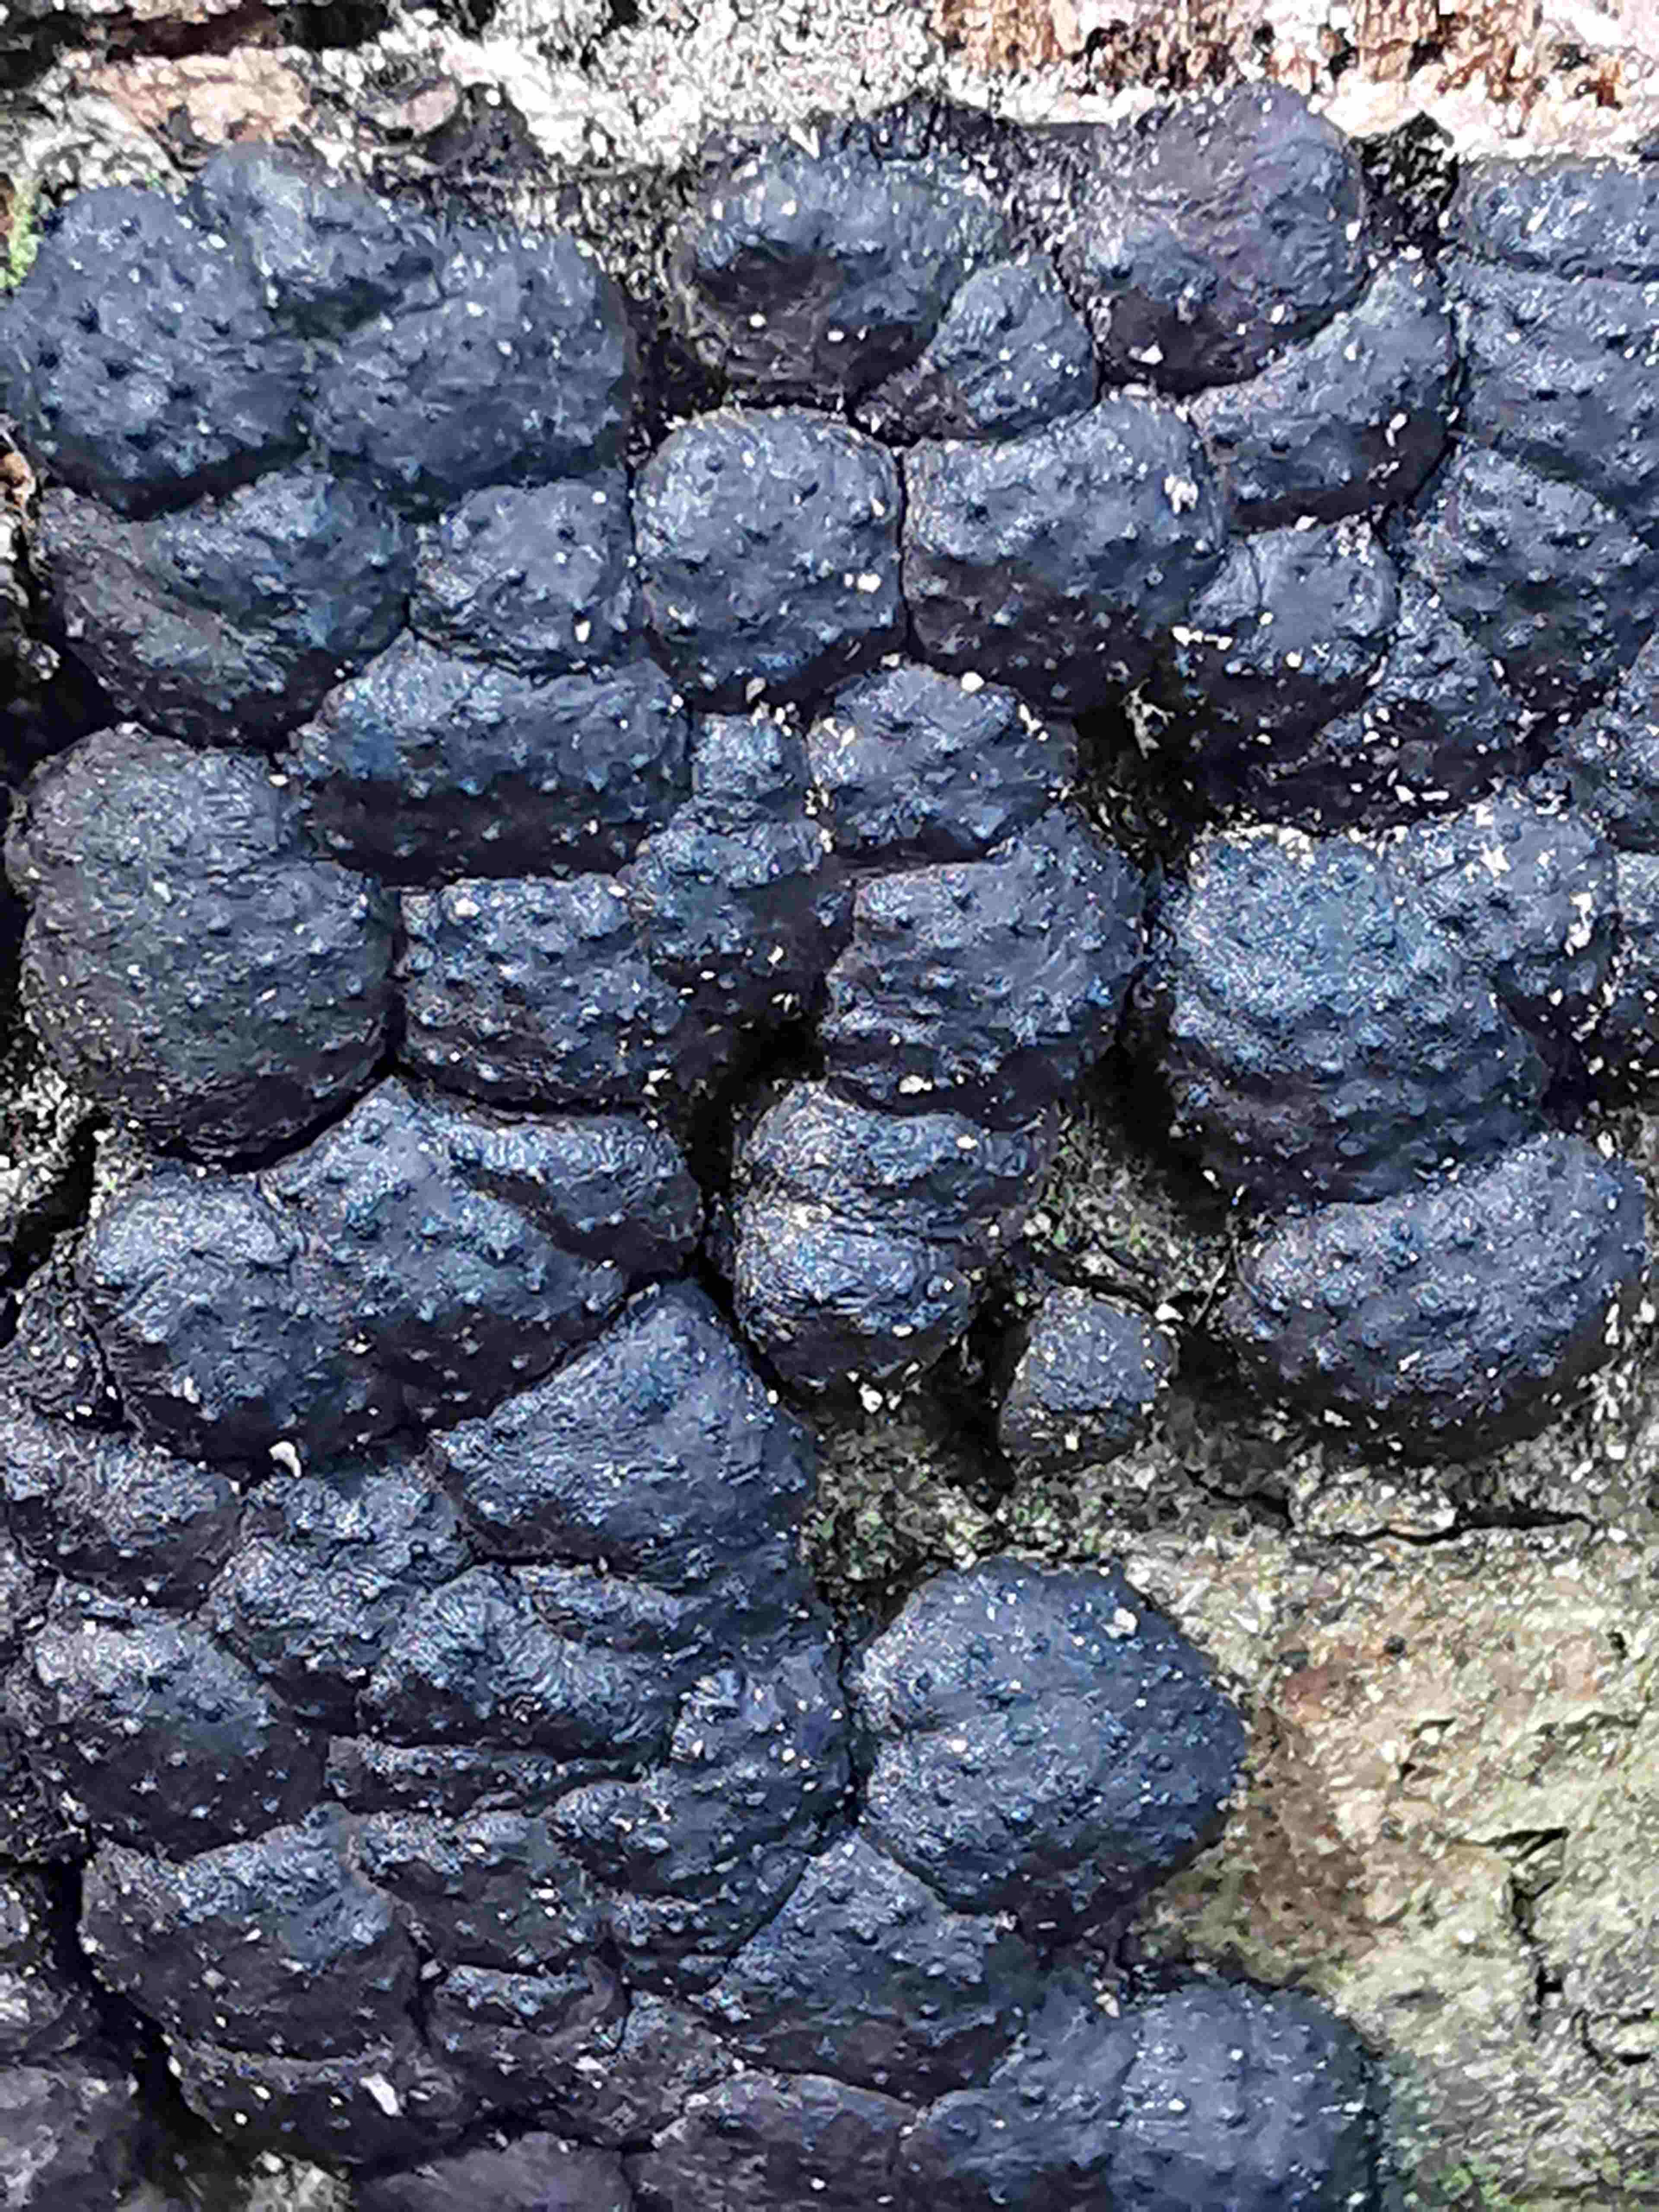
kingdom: Fungi
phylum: Ascomycota
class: Sordariomycetes
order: Xylariales
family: Hypoxylaceae
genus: Jackrogersella
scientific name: Jackrogersella cohaerens
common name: sammenflydende kulbær
